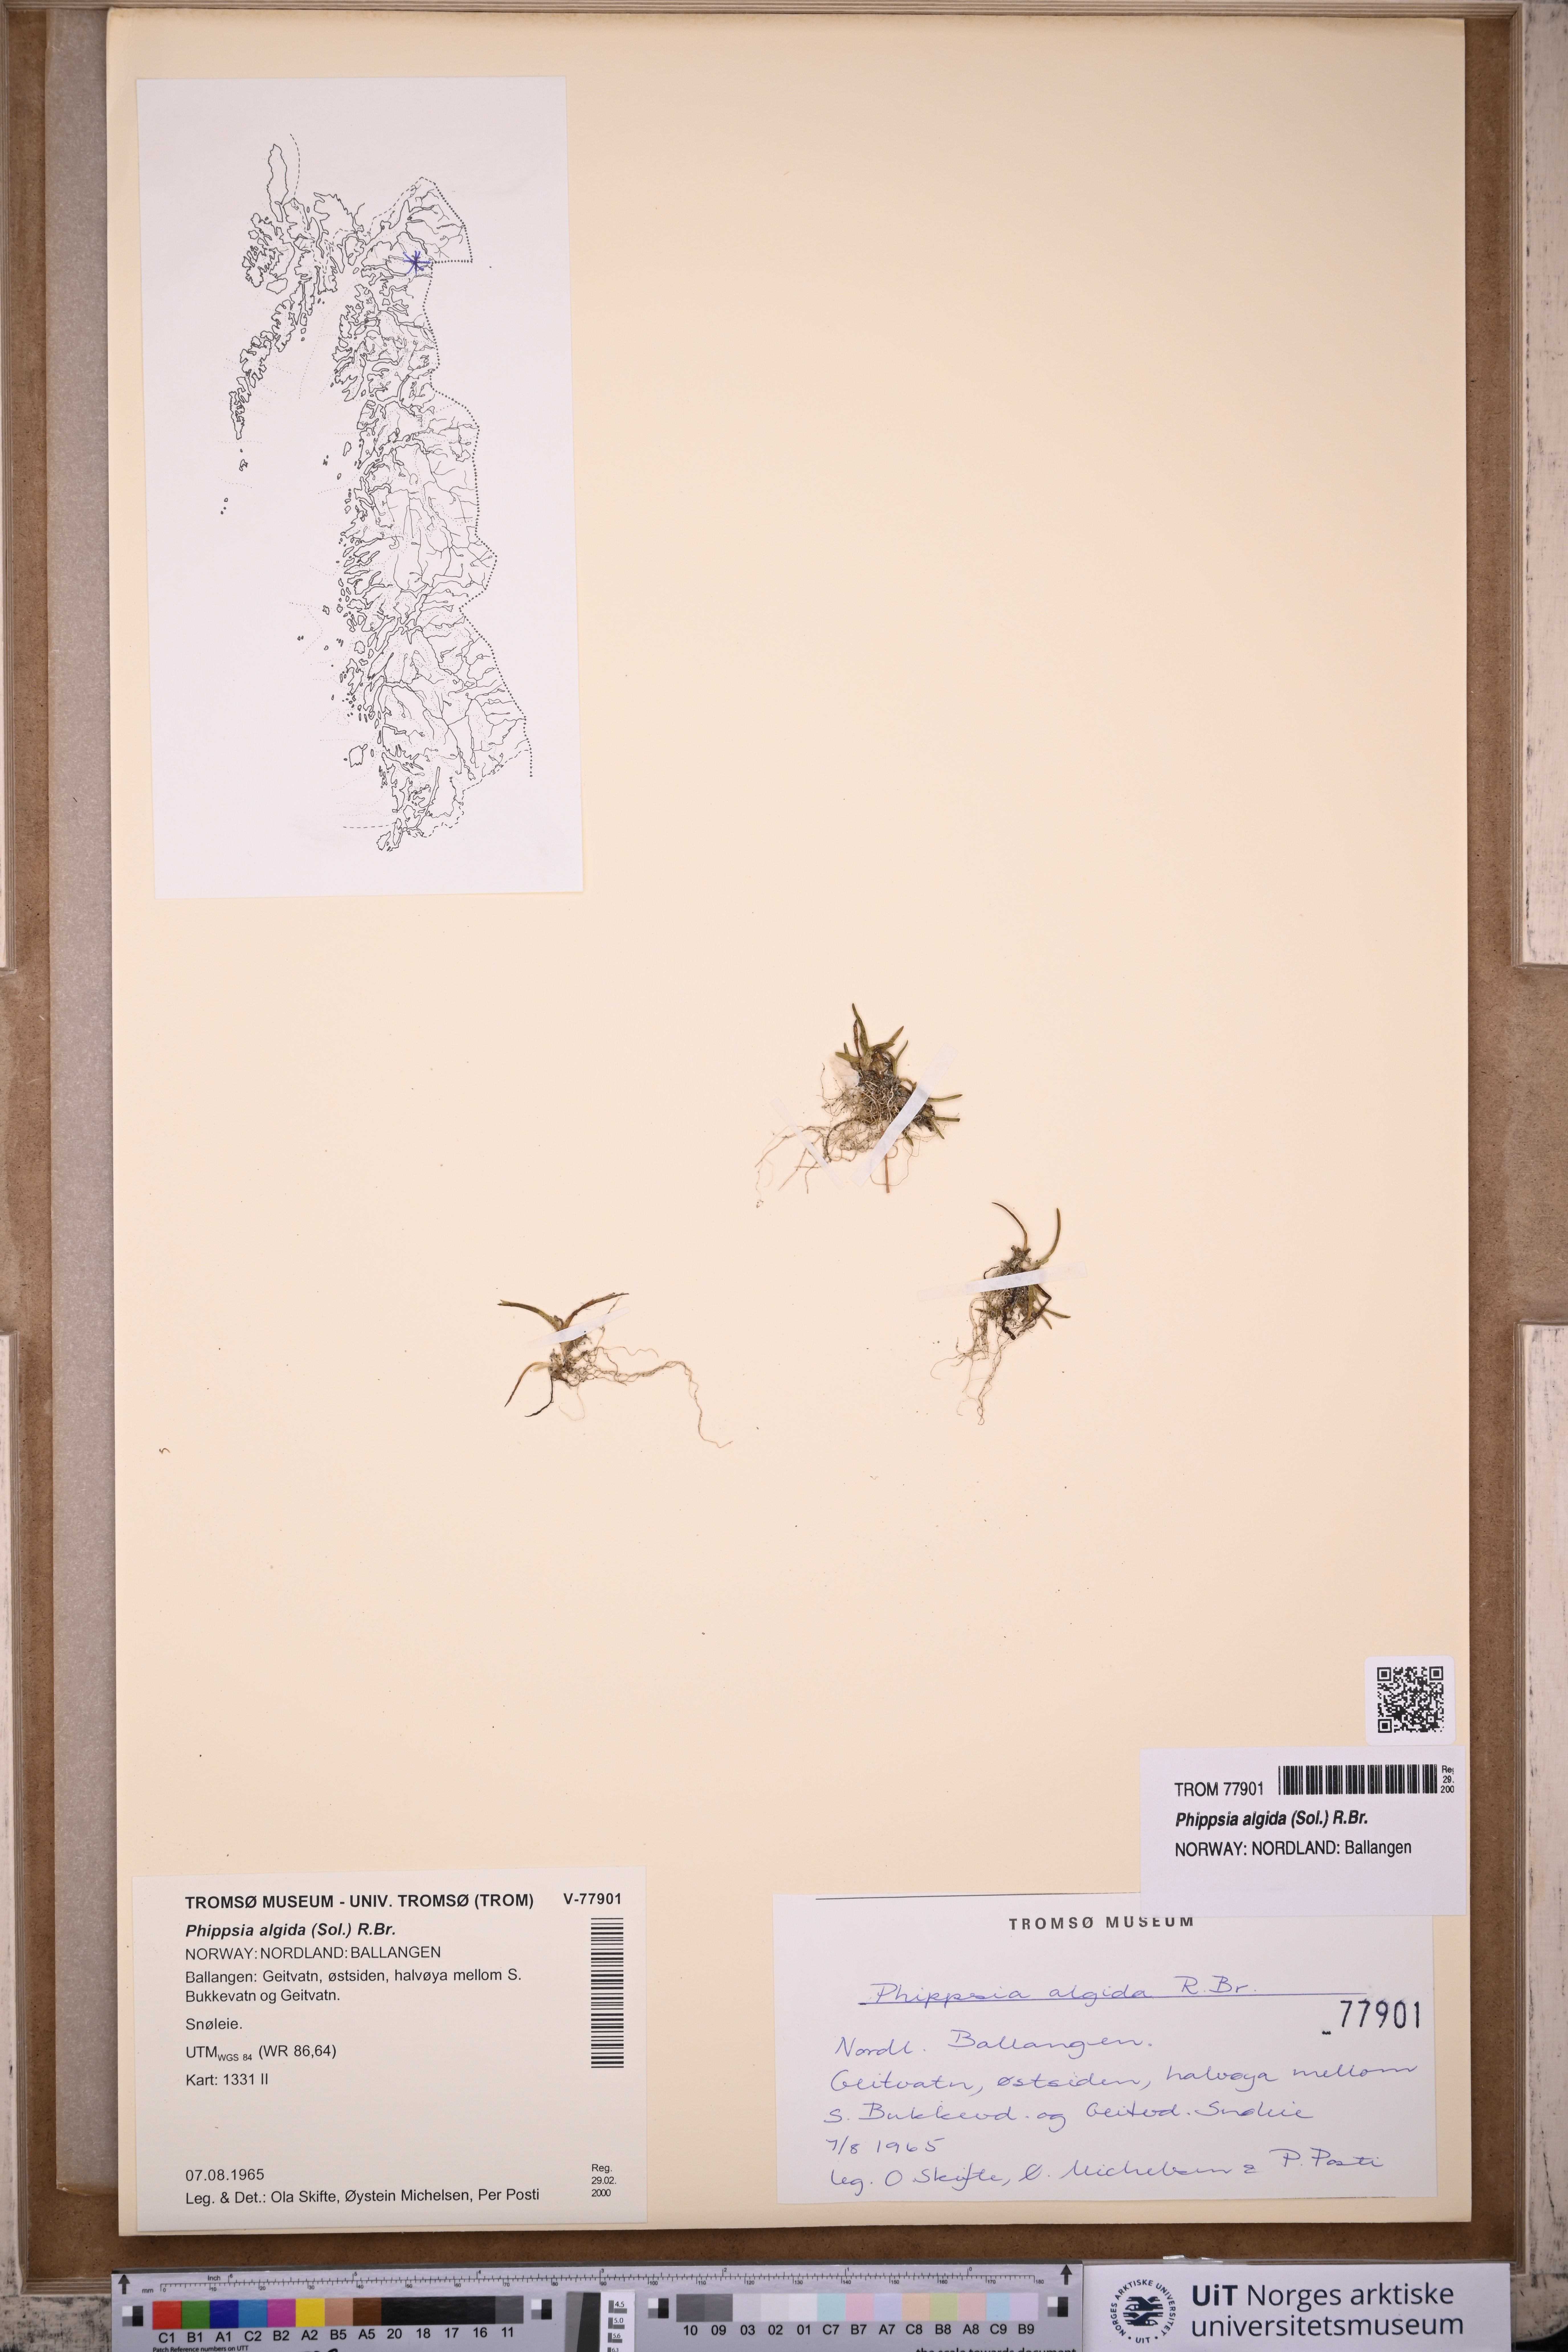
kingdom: Plantae
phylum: Tracheophyta
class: Liliopsida
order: Poales
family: Poaceae
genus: Phippsia
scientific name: Phippsia algida
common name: Ice grass
